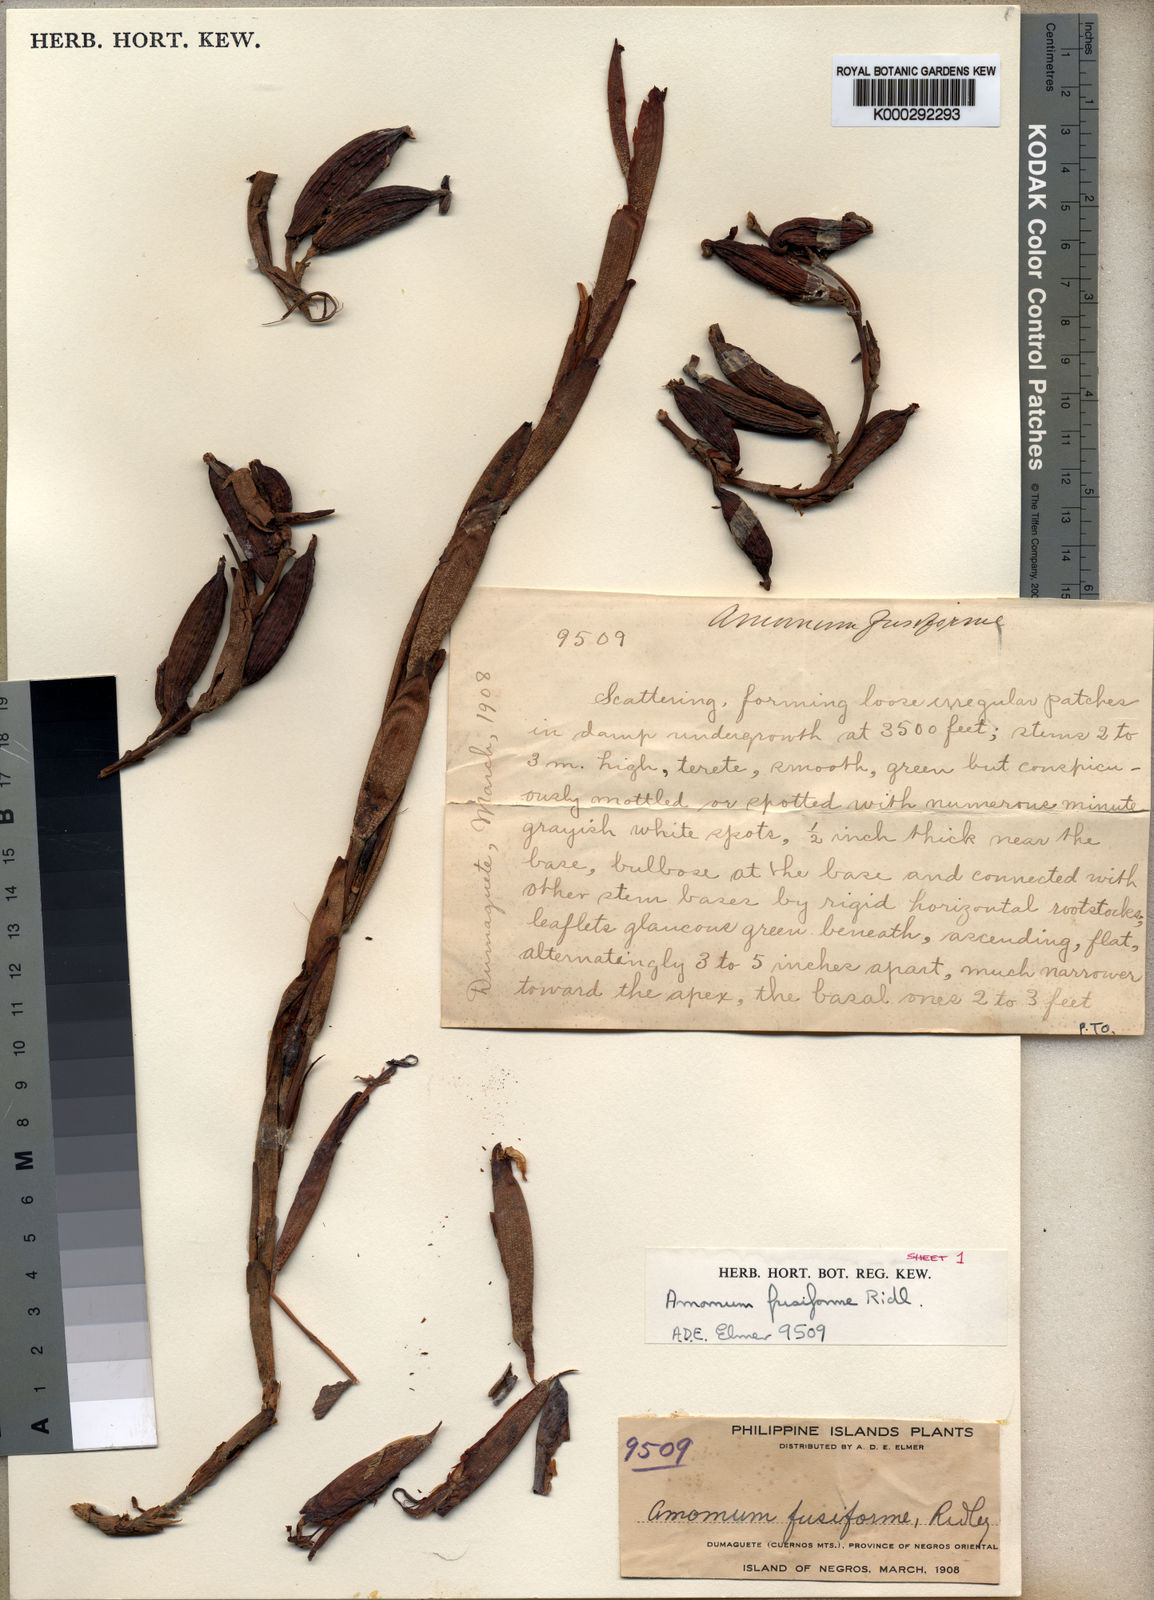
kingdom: Plantae
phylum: Tracheophyta
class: Liliopsida
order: Zingiberales
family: Zingiberaceae
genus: Geocharis
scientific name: Geocharis fusiformis
